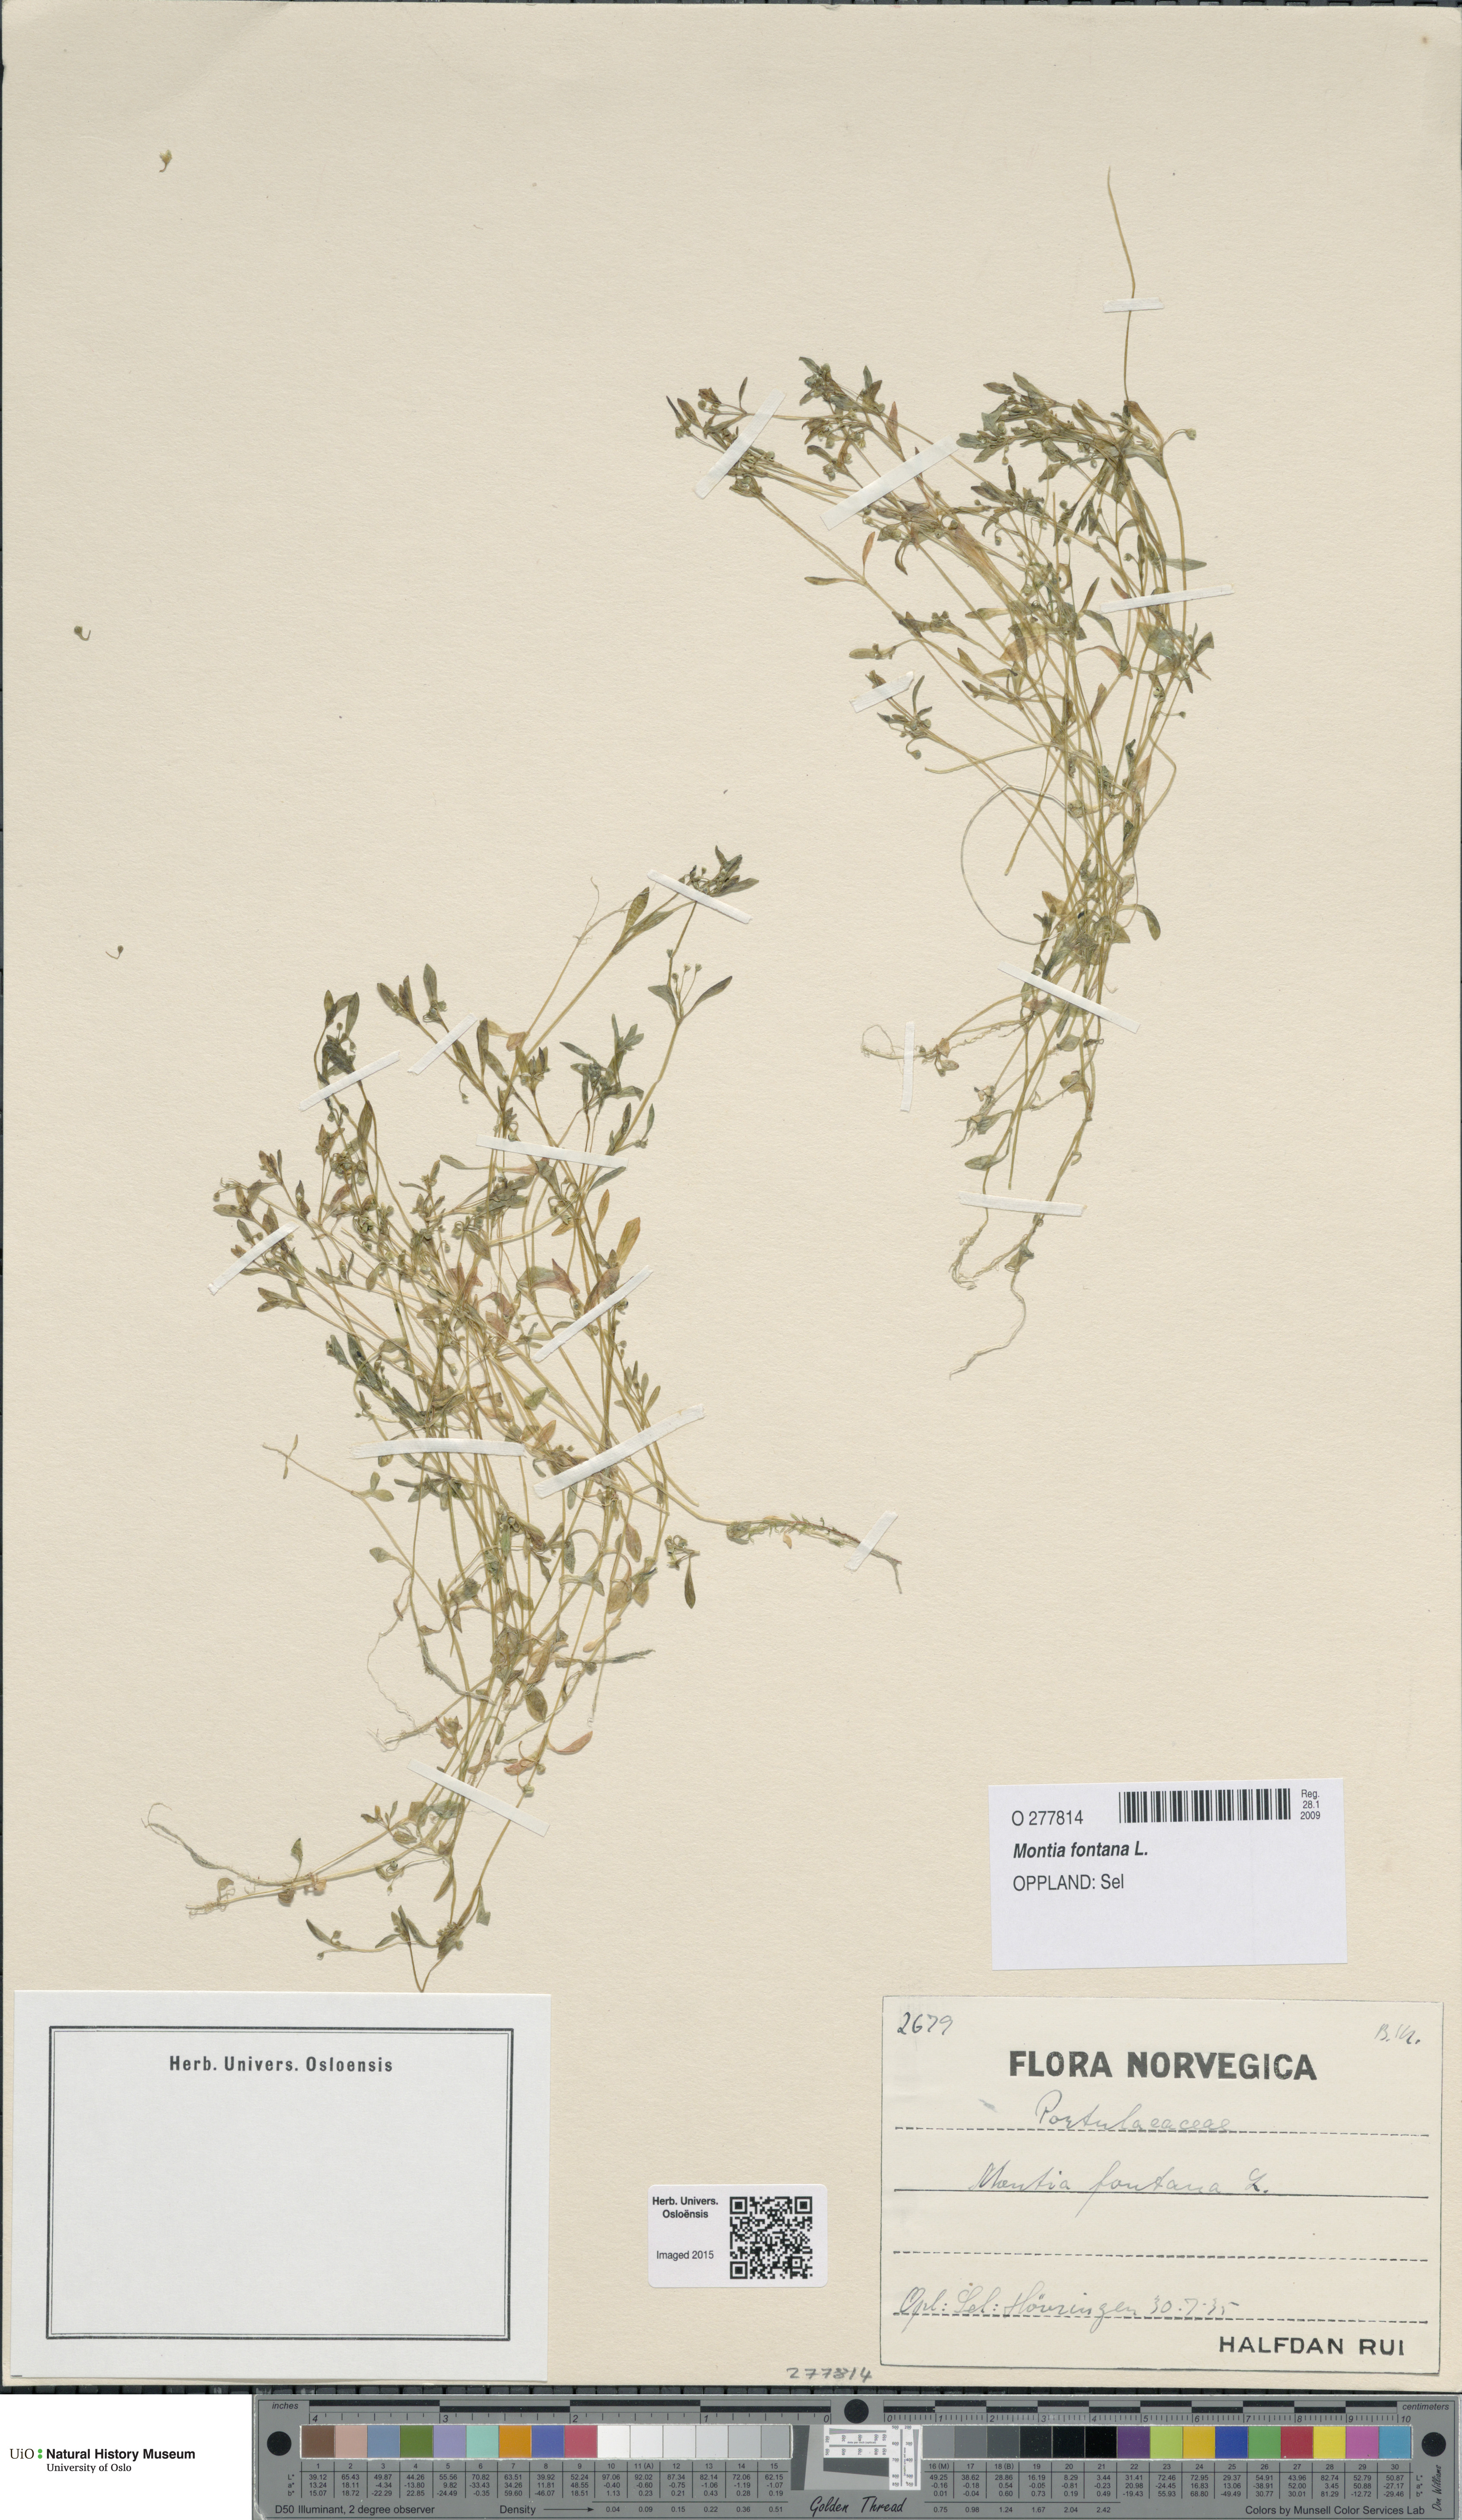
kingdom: Plantae
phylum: Tracheophyta
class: Magnoliopsida
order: Caryophyllales
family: Montiaceae
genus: Montia
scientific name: Montia fontana
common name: Blinks
